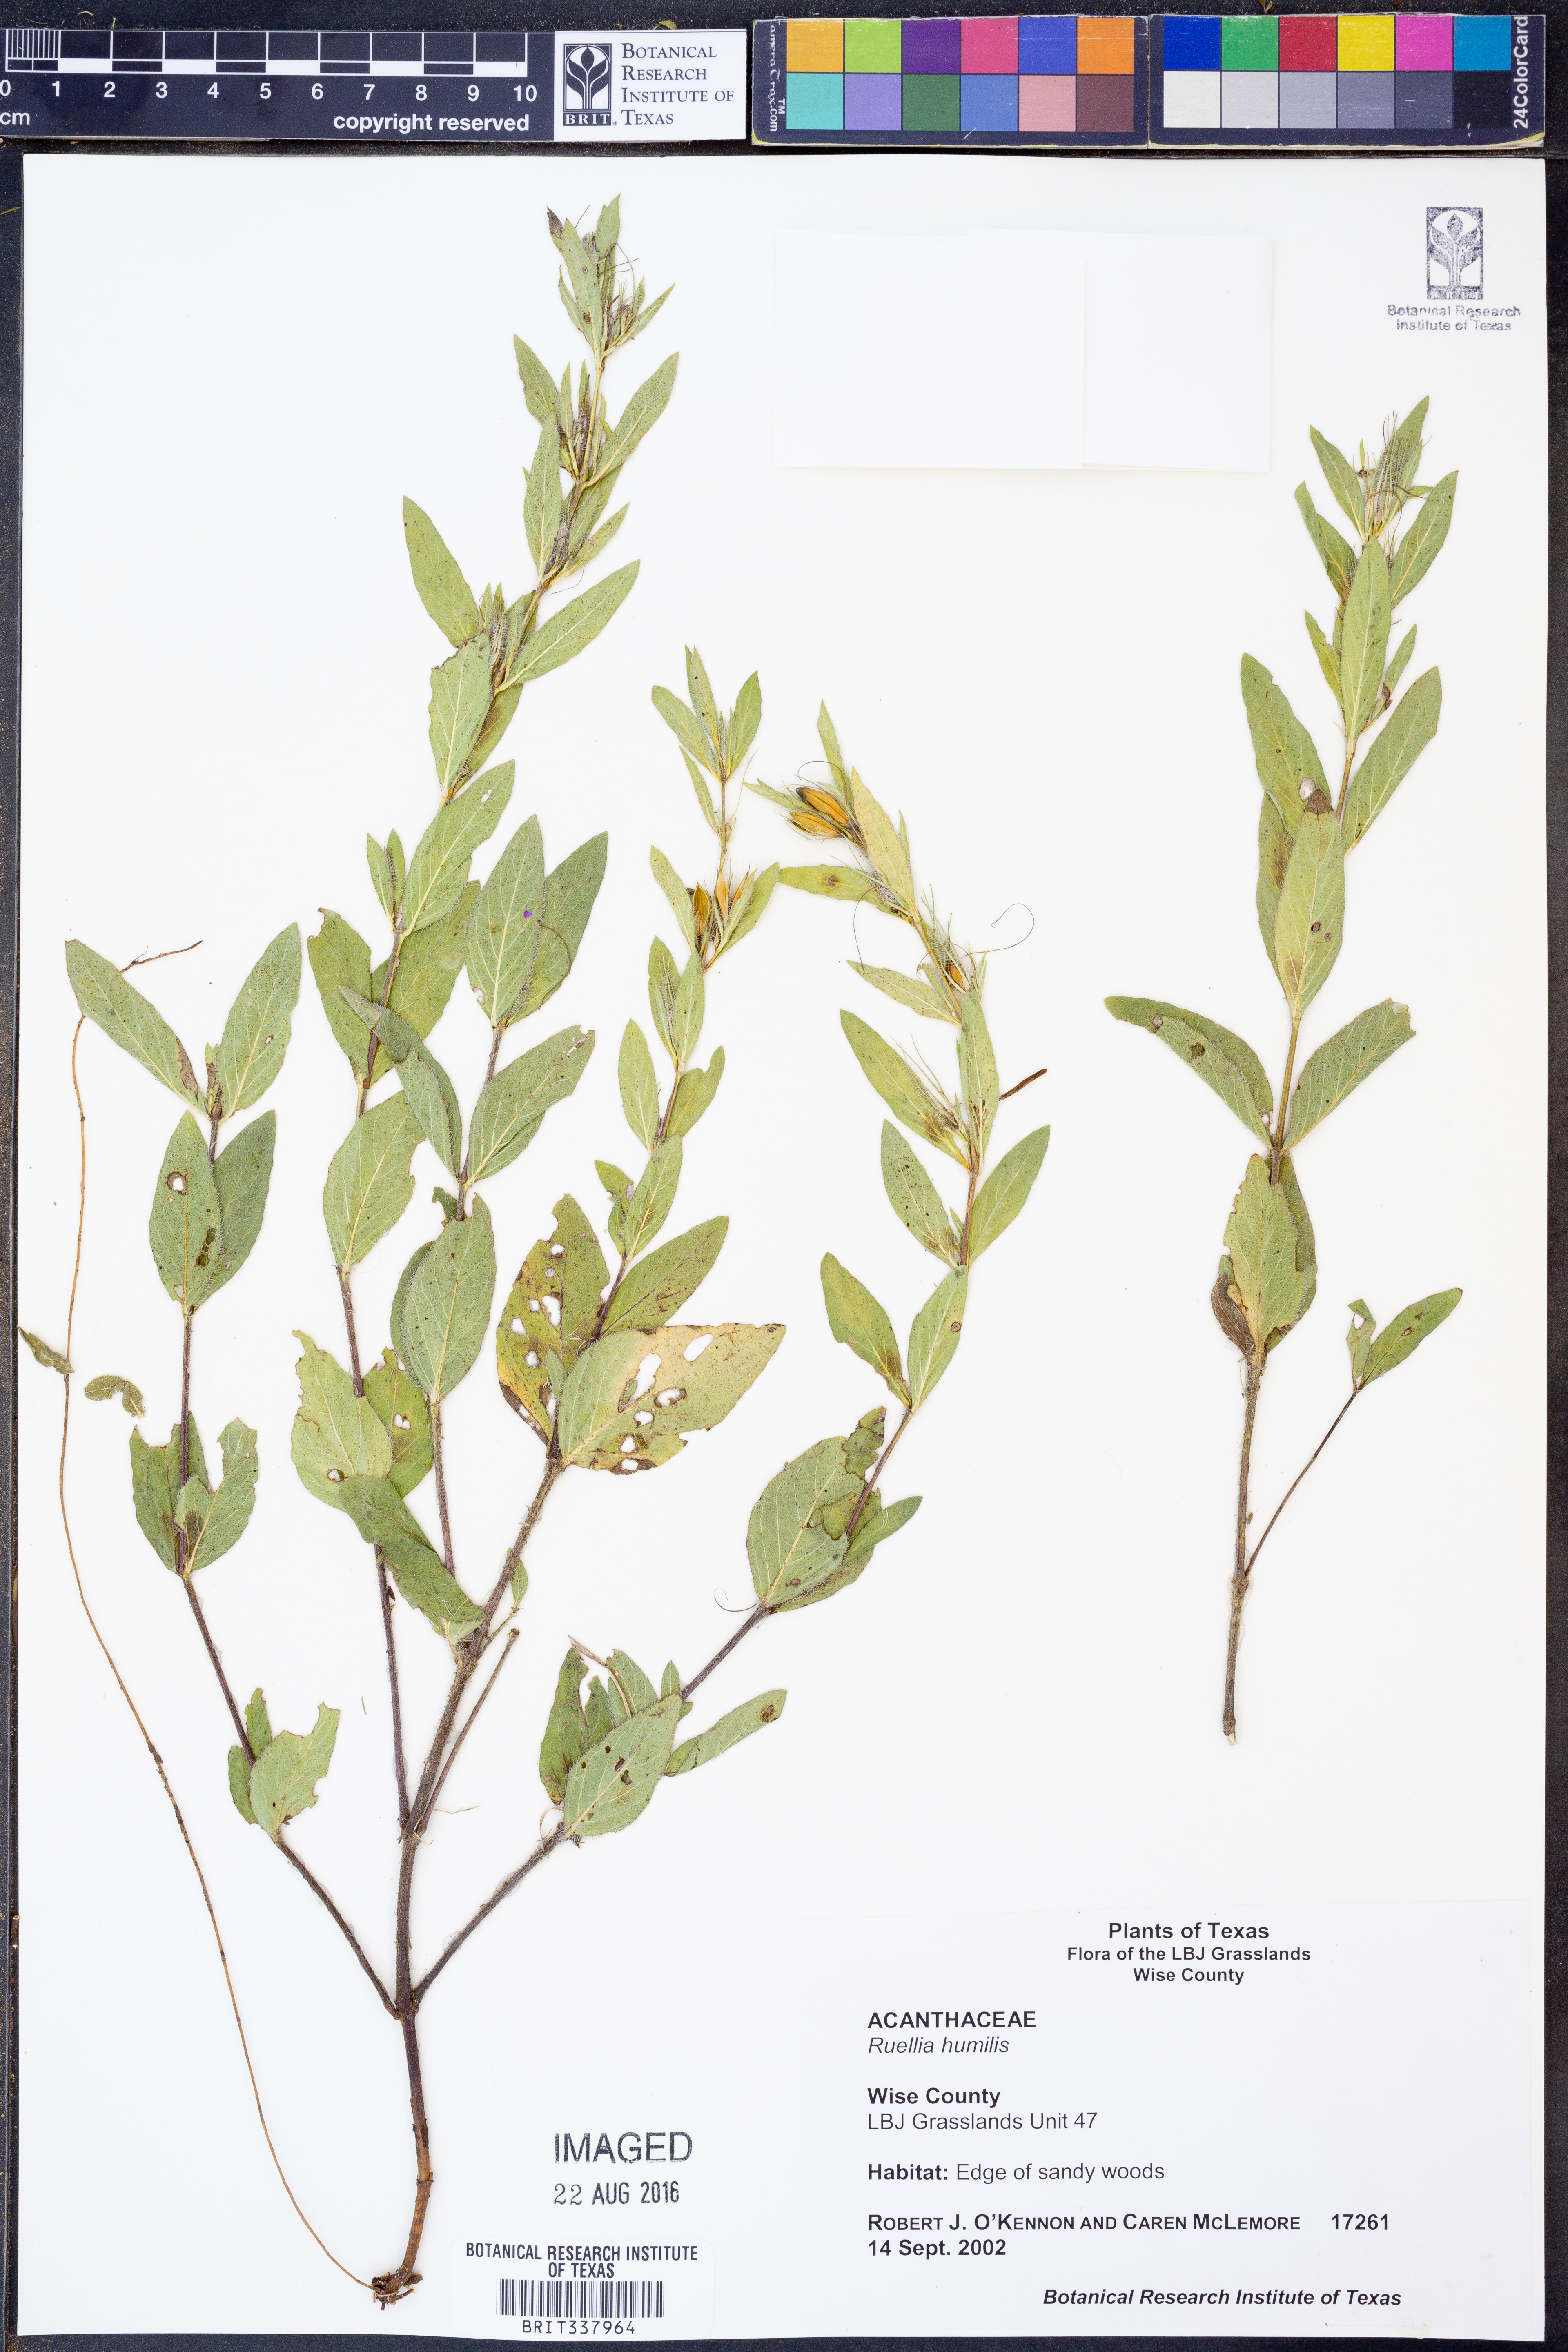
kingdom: Plantae
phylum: Tracheophyta
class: Magnoliopsida
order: Lamiales
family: Acanthaceae
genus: Ruellia
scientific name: Ruellia humilis
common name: Fringe-leaf ruellia
